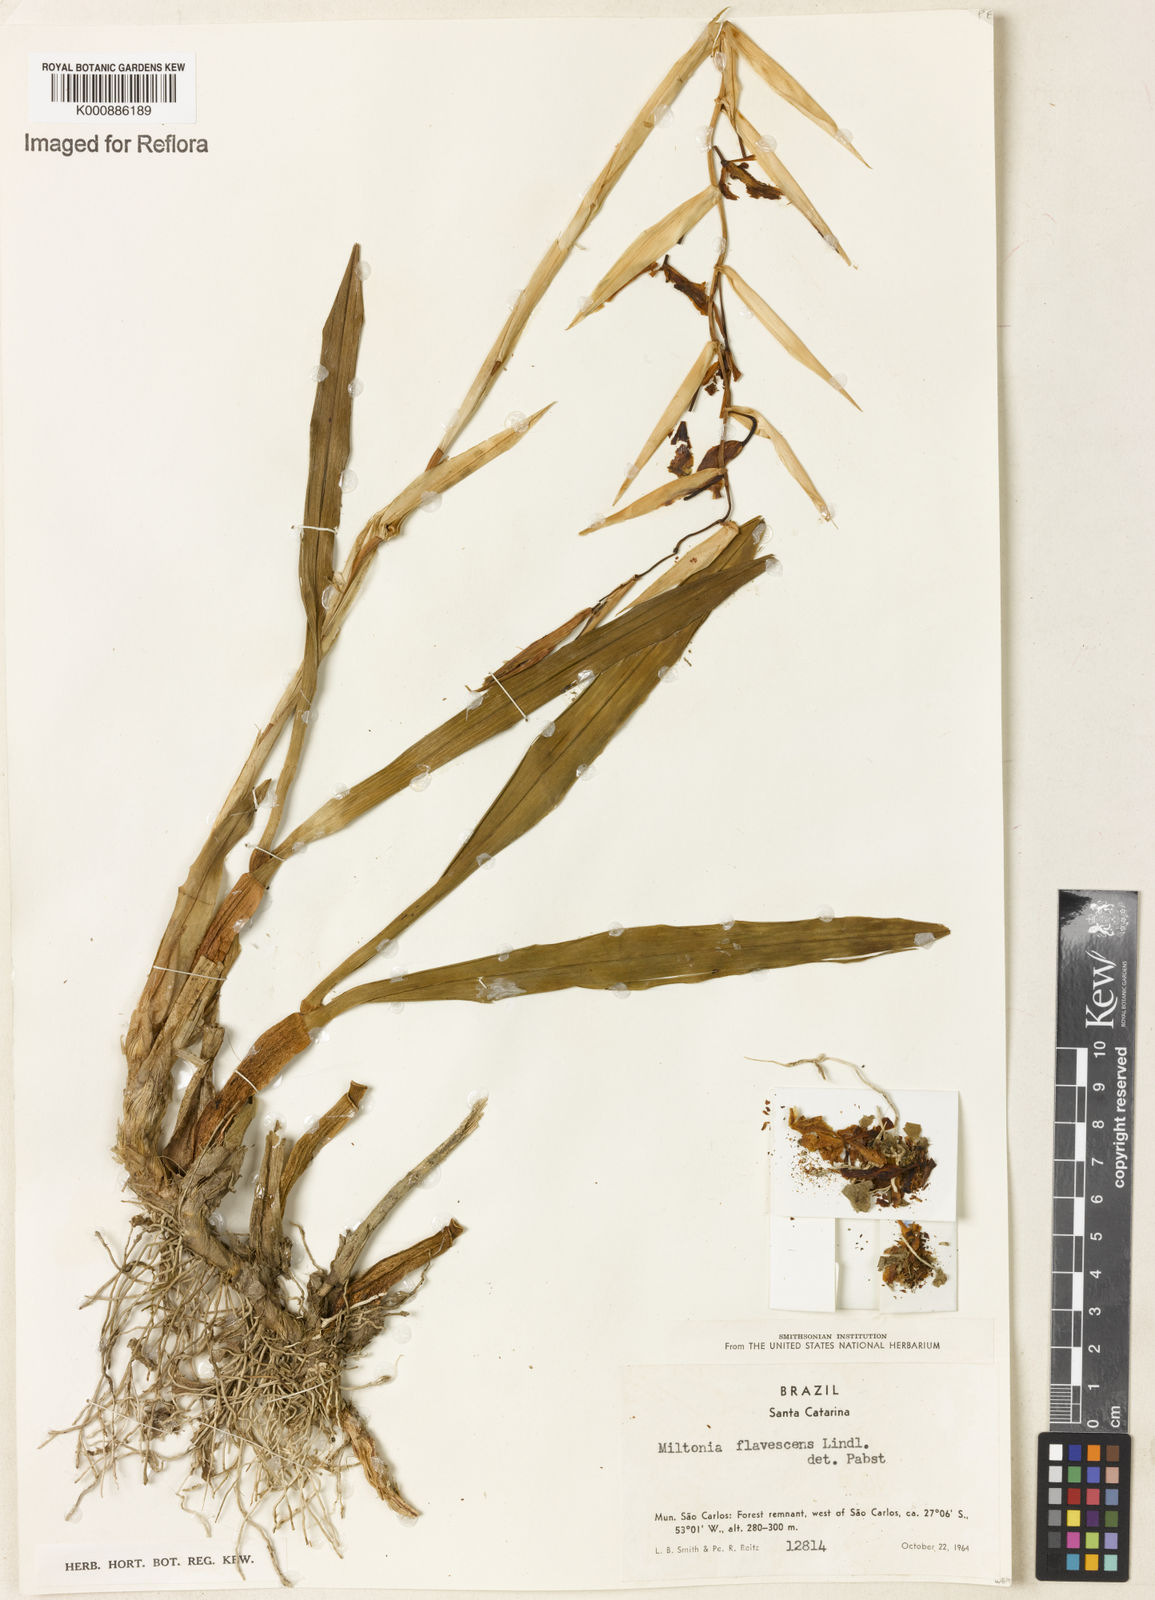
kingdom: Plantae
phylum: Tracheophyta
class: Liliopsida
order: Asparagales
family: Orchidaceae
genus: Miltonia
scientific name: Miltonia flavescens
